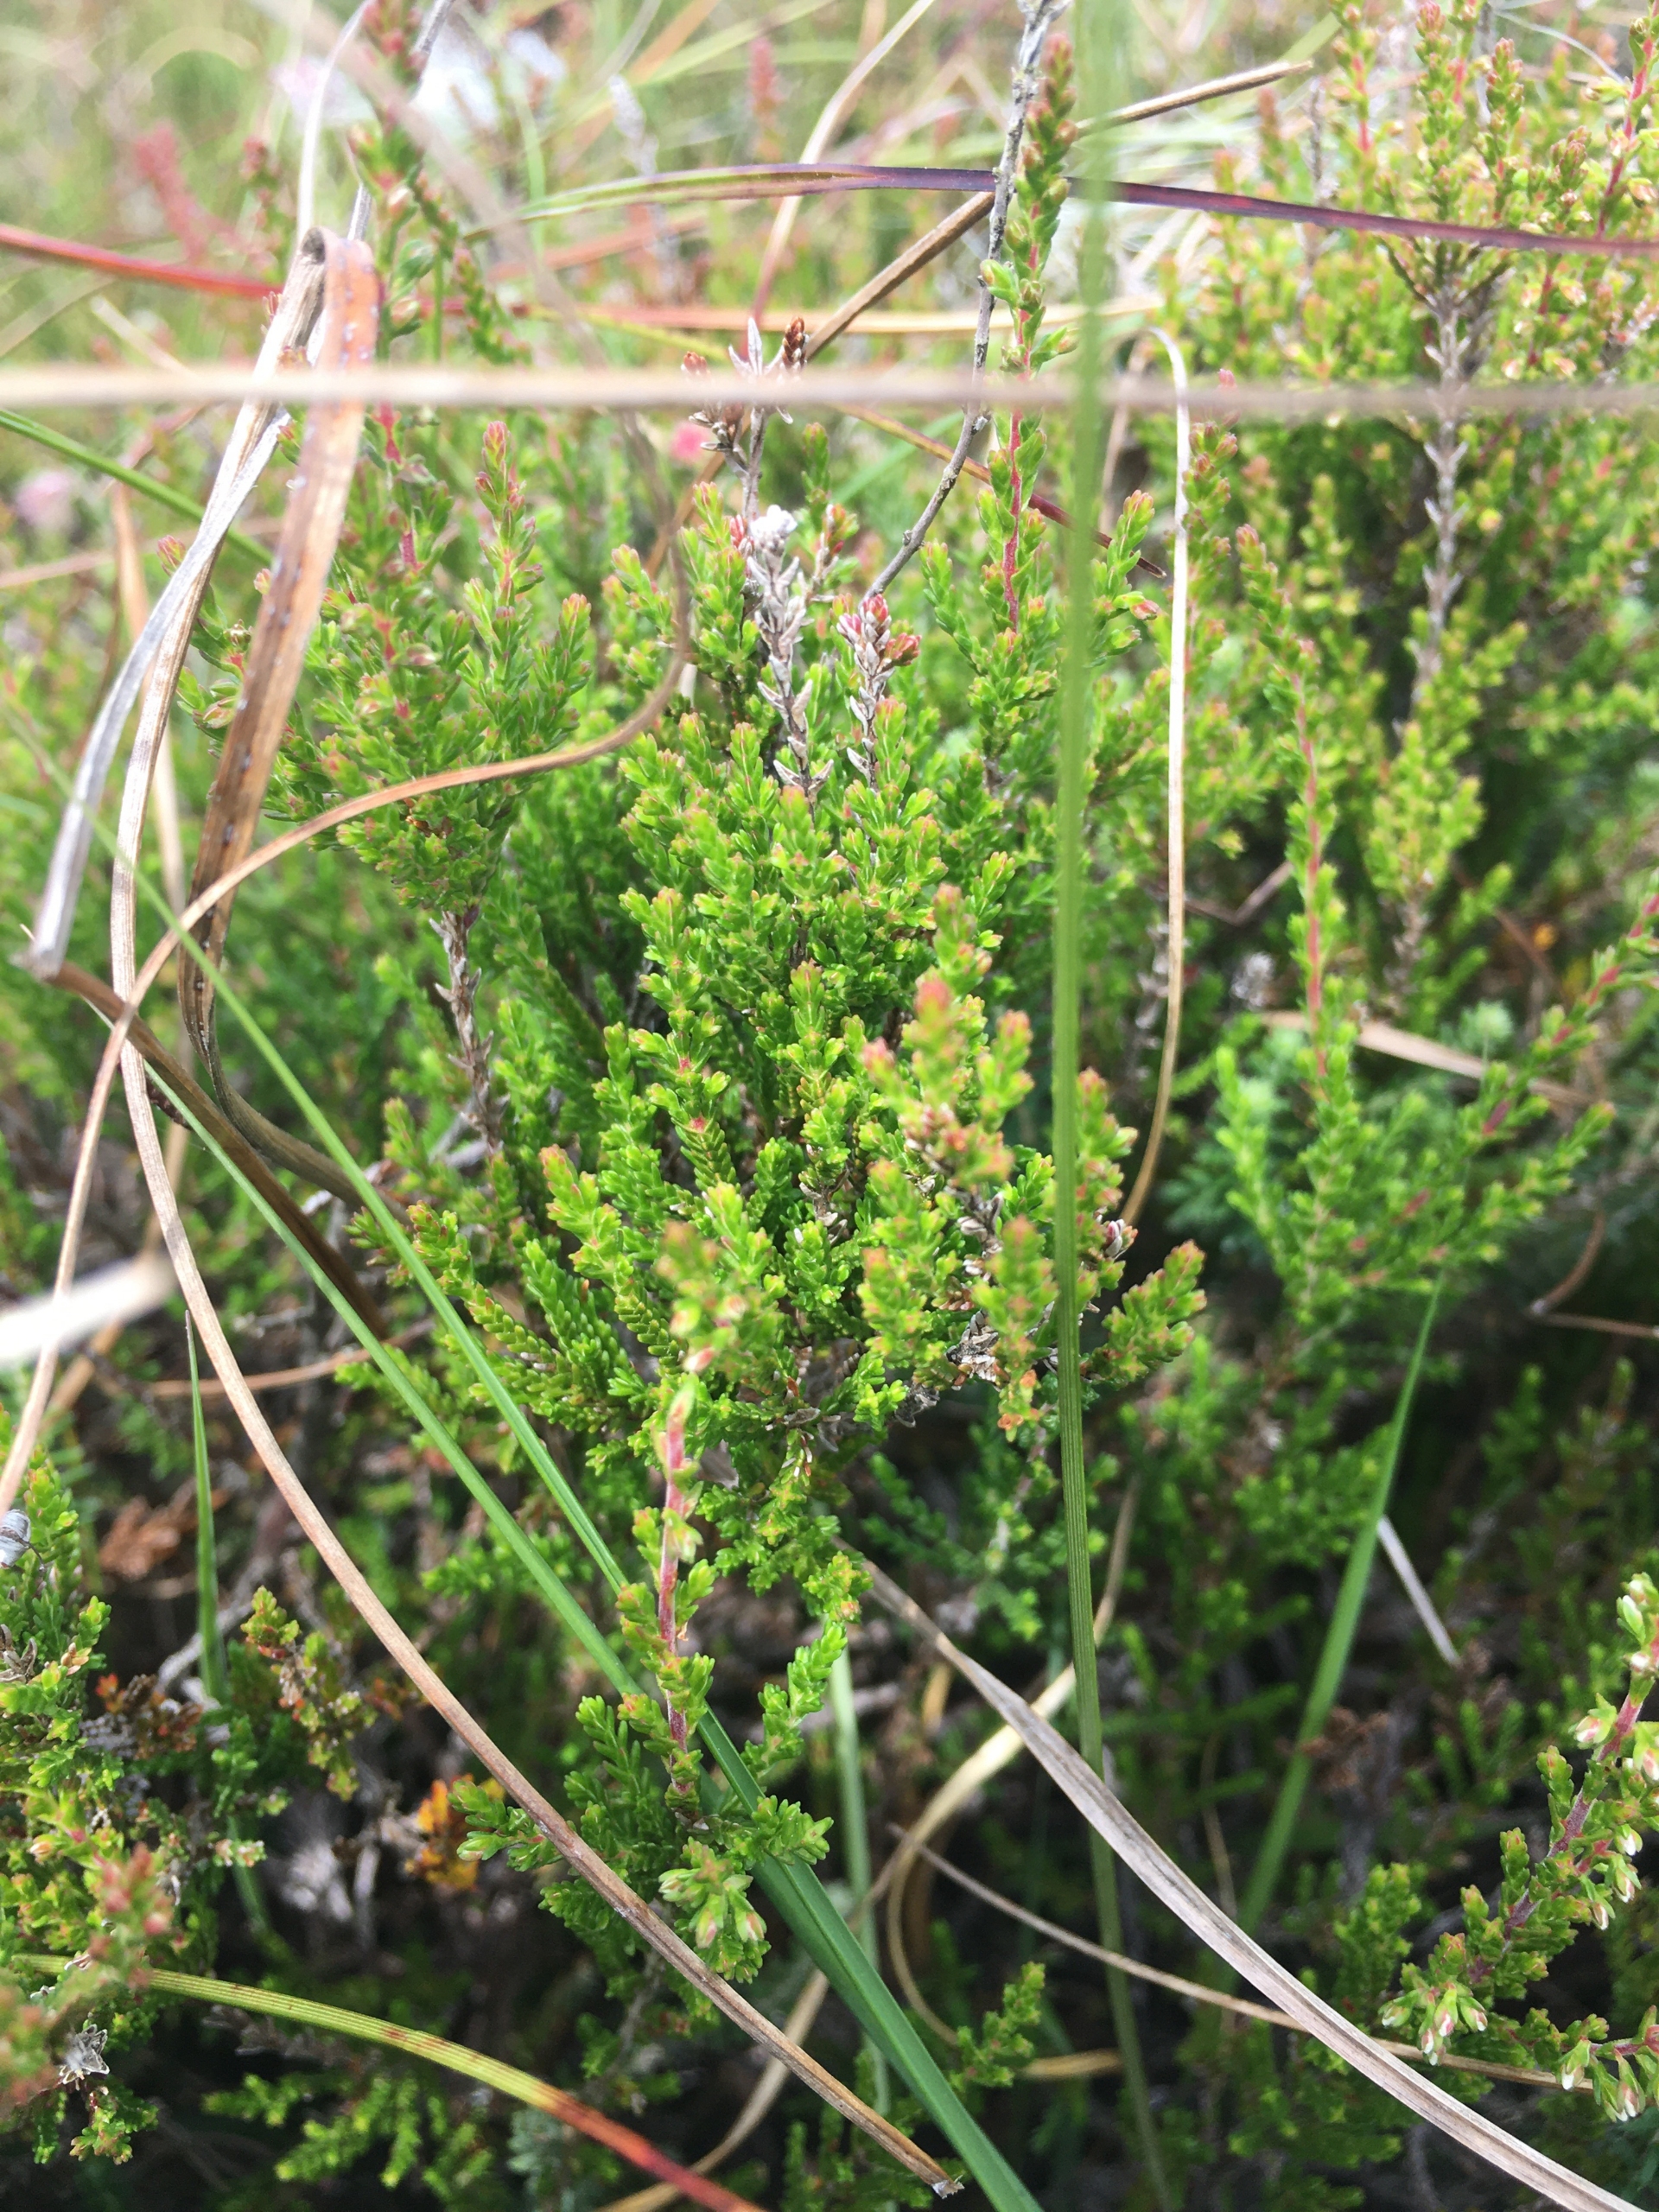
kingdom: Plantae
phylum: Tracheophyta
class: Magnoliopsida
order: Ericales
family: Ericaceae
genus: Calluna
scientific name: Calluna vulgaris
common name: Hedelyng
